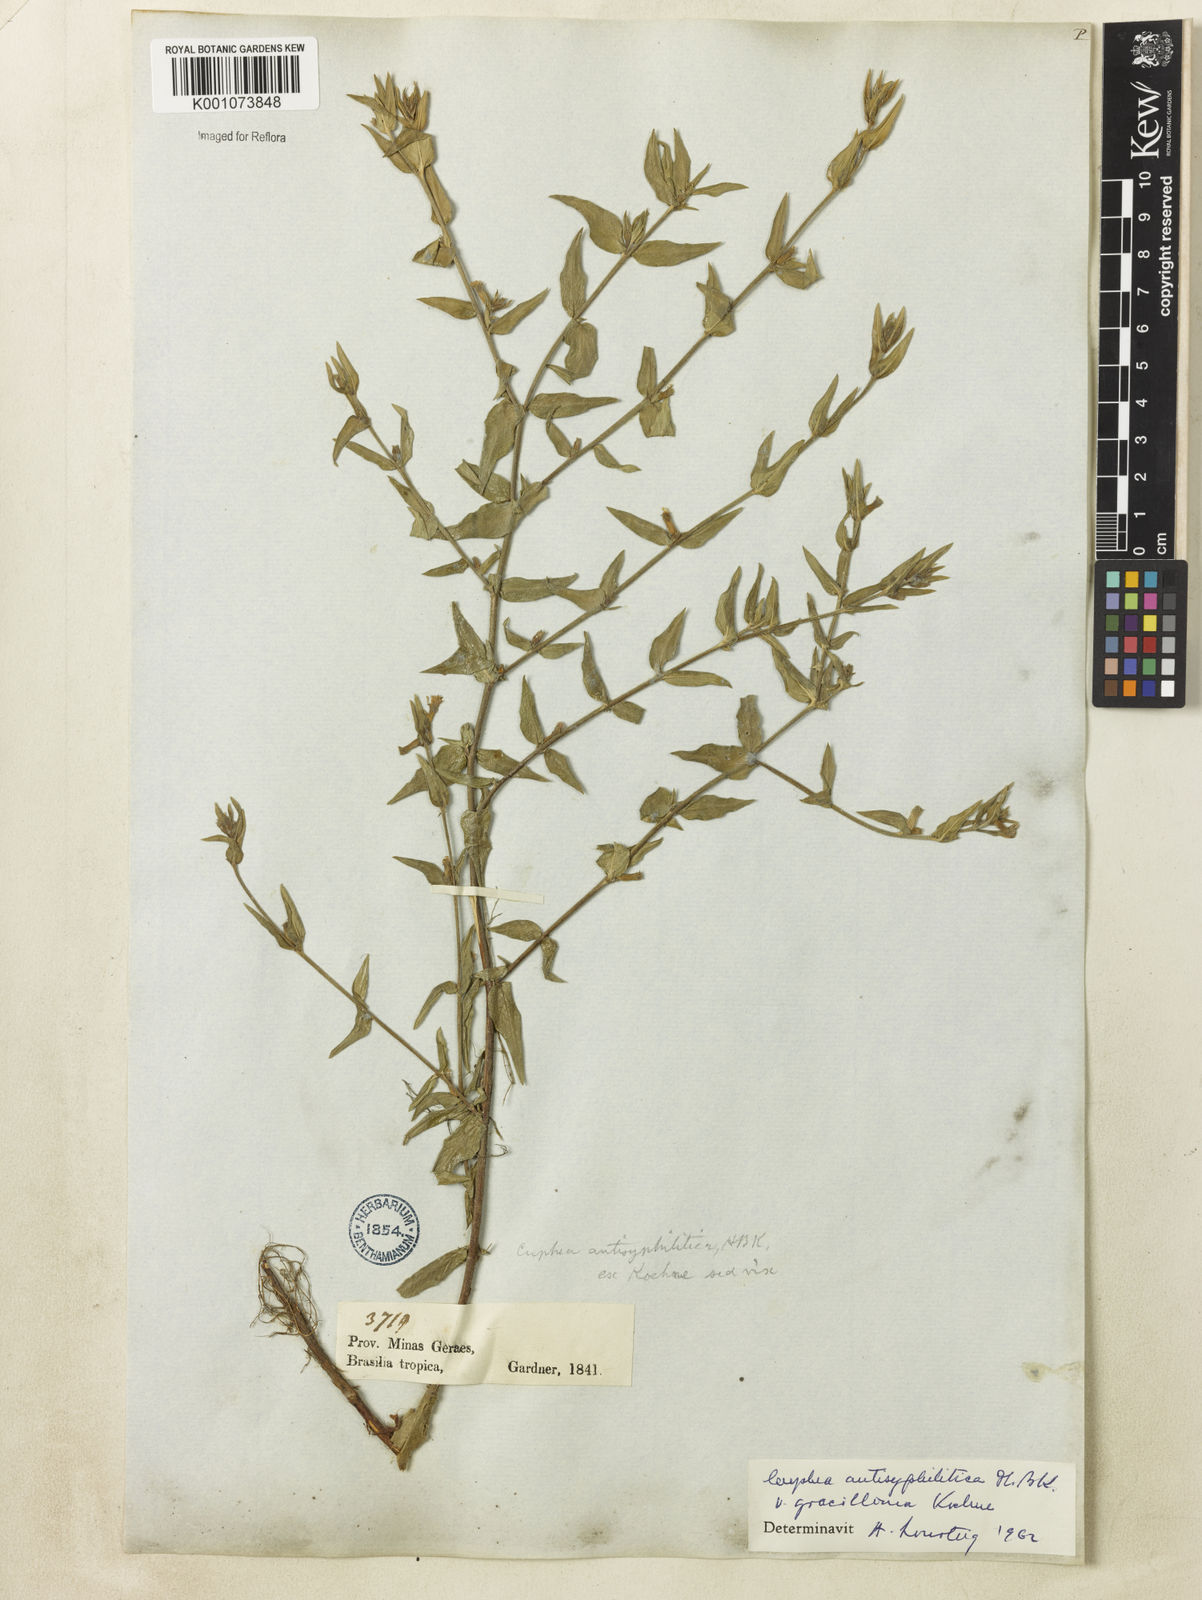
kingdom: Plantae
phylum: Tracheophyta
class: Magnoliopsida
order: Myrtales
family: Lythraceae
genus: Cuphea
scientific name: Cuphea antisyphilitica
